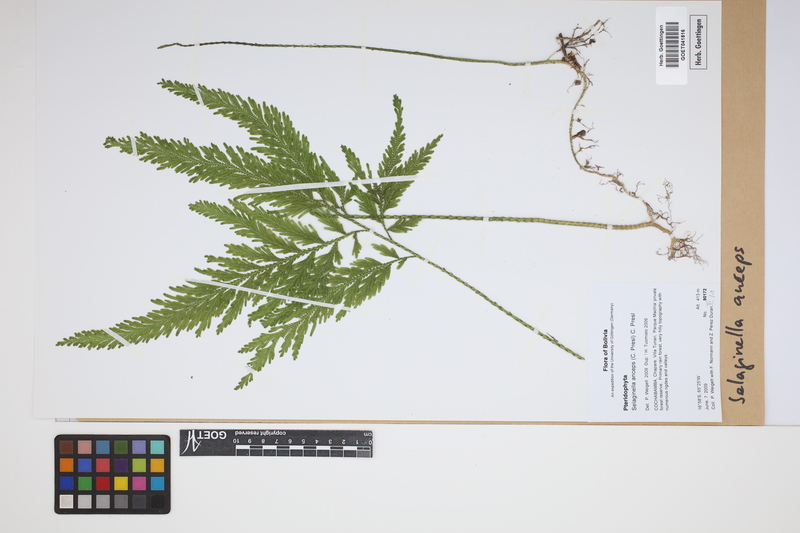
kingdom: Plantae
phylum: Tracheophyta
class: Lycopodiopsida
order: Selaginellales
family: Selaginellaceae
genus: Selaginella
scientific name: Selaginella anceps
